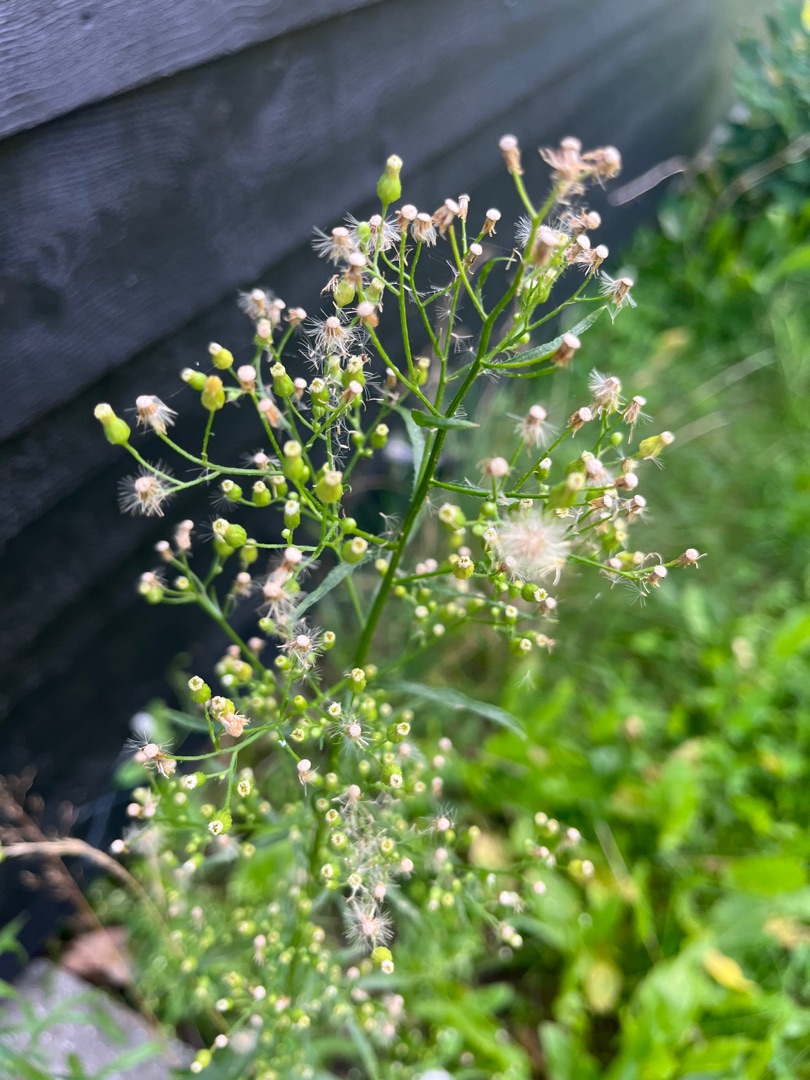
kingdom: Plantae
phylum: Tracheophyta
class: Magnoliopsida
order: Asterales
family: Asteraceae
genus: Erigeron
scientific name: Erigeron canadensis
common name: Kanadisk bakkestjerne
